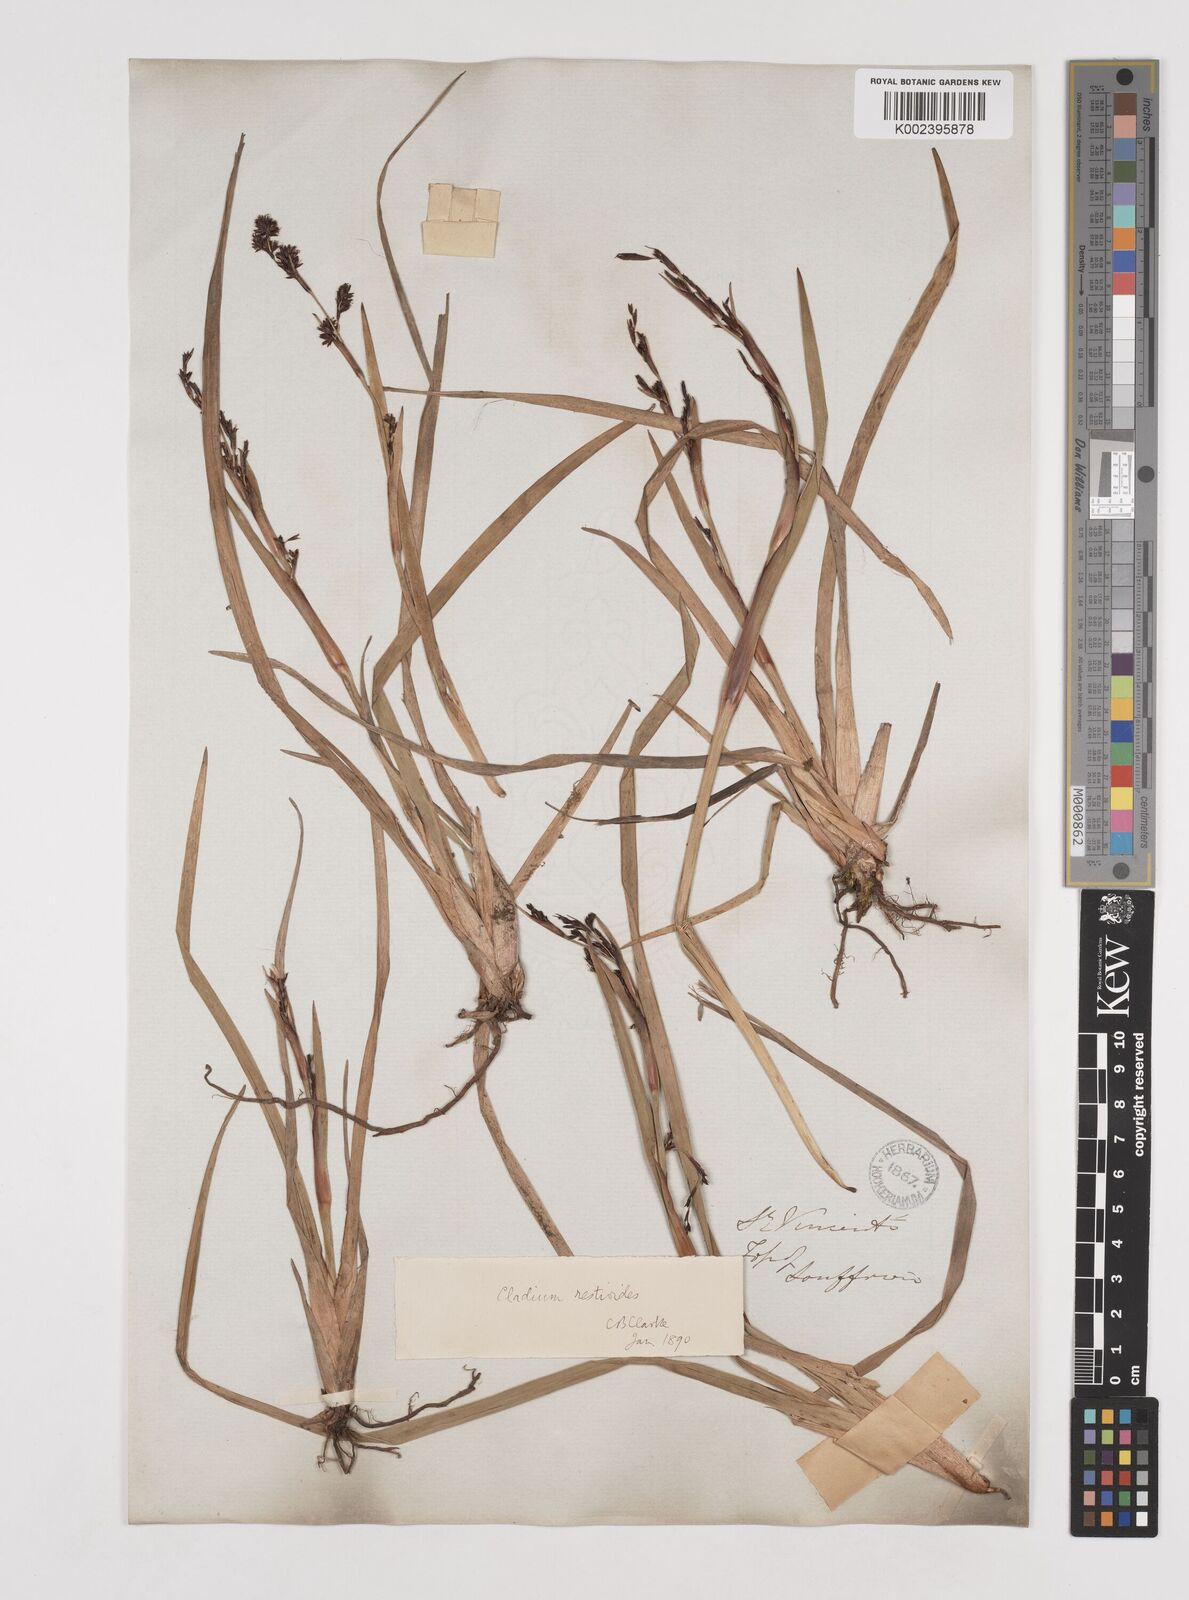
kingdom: Plantae
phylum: Tracheophyta
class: Liliopsida
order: Poales
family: Cyperaceae
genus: Machaerina
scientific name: Machaerina restioides
